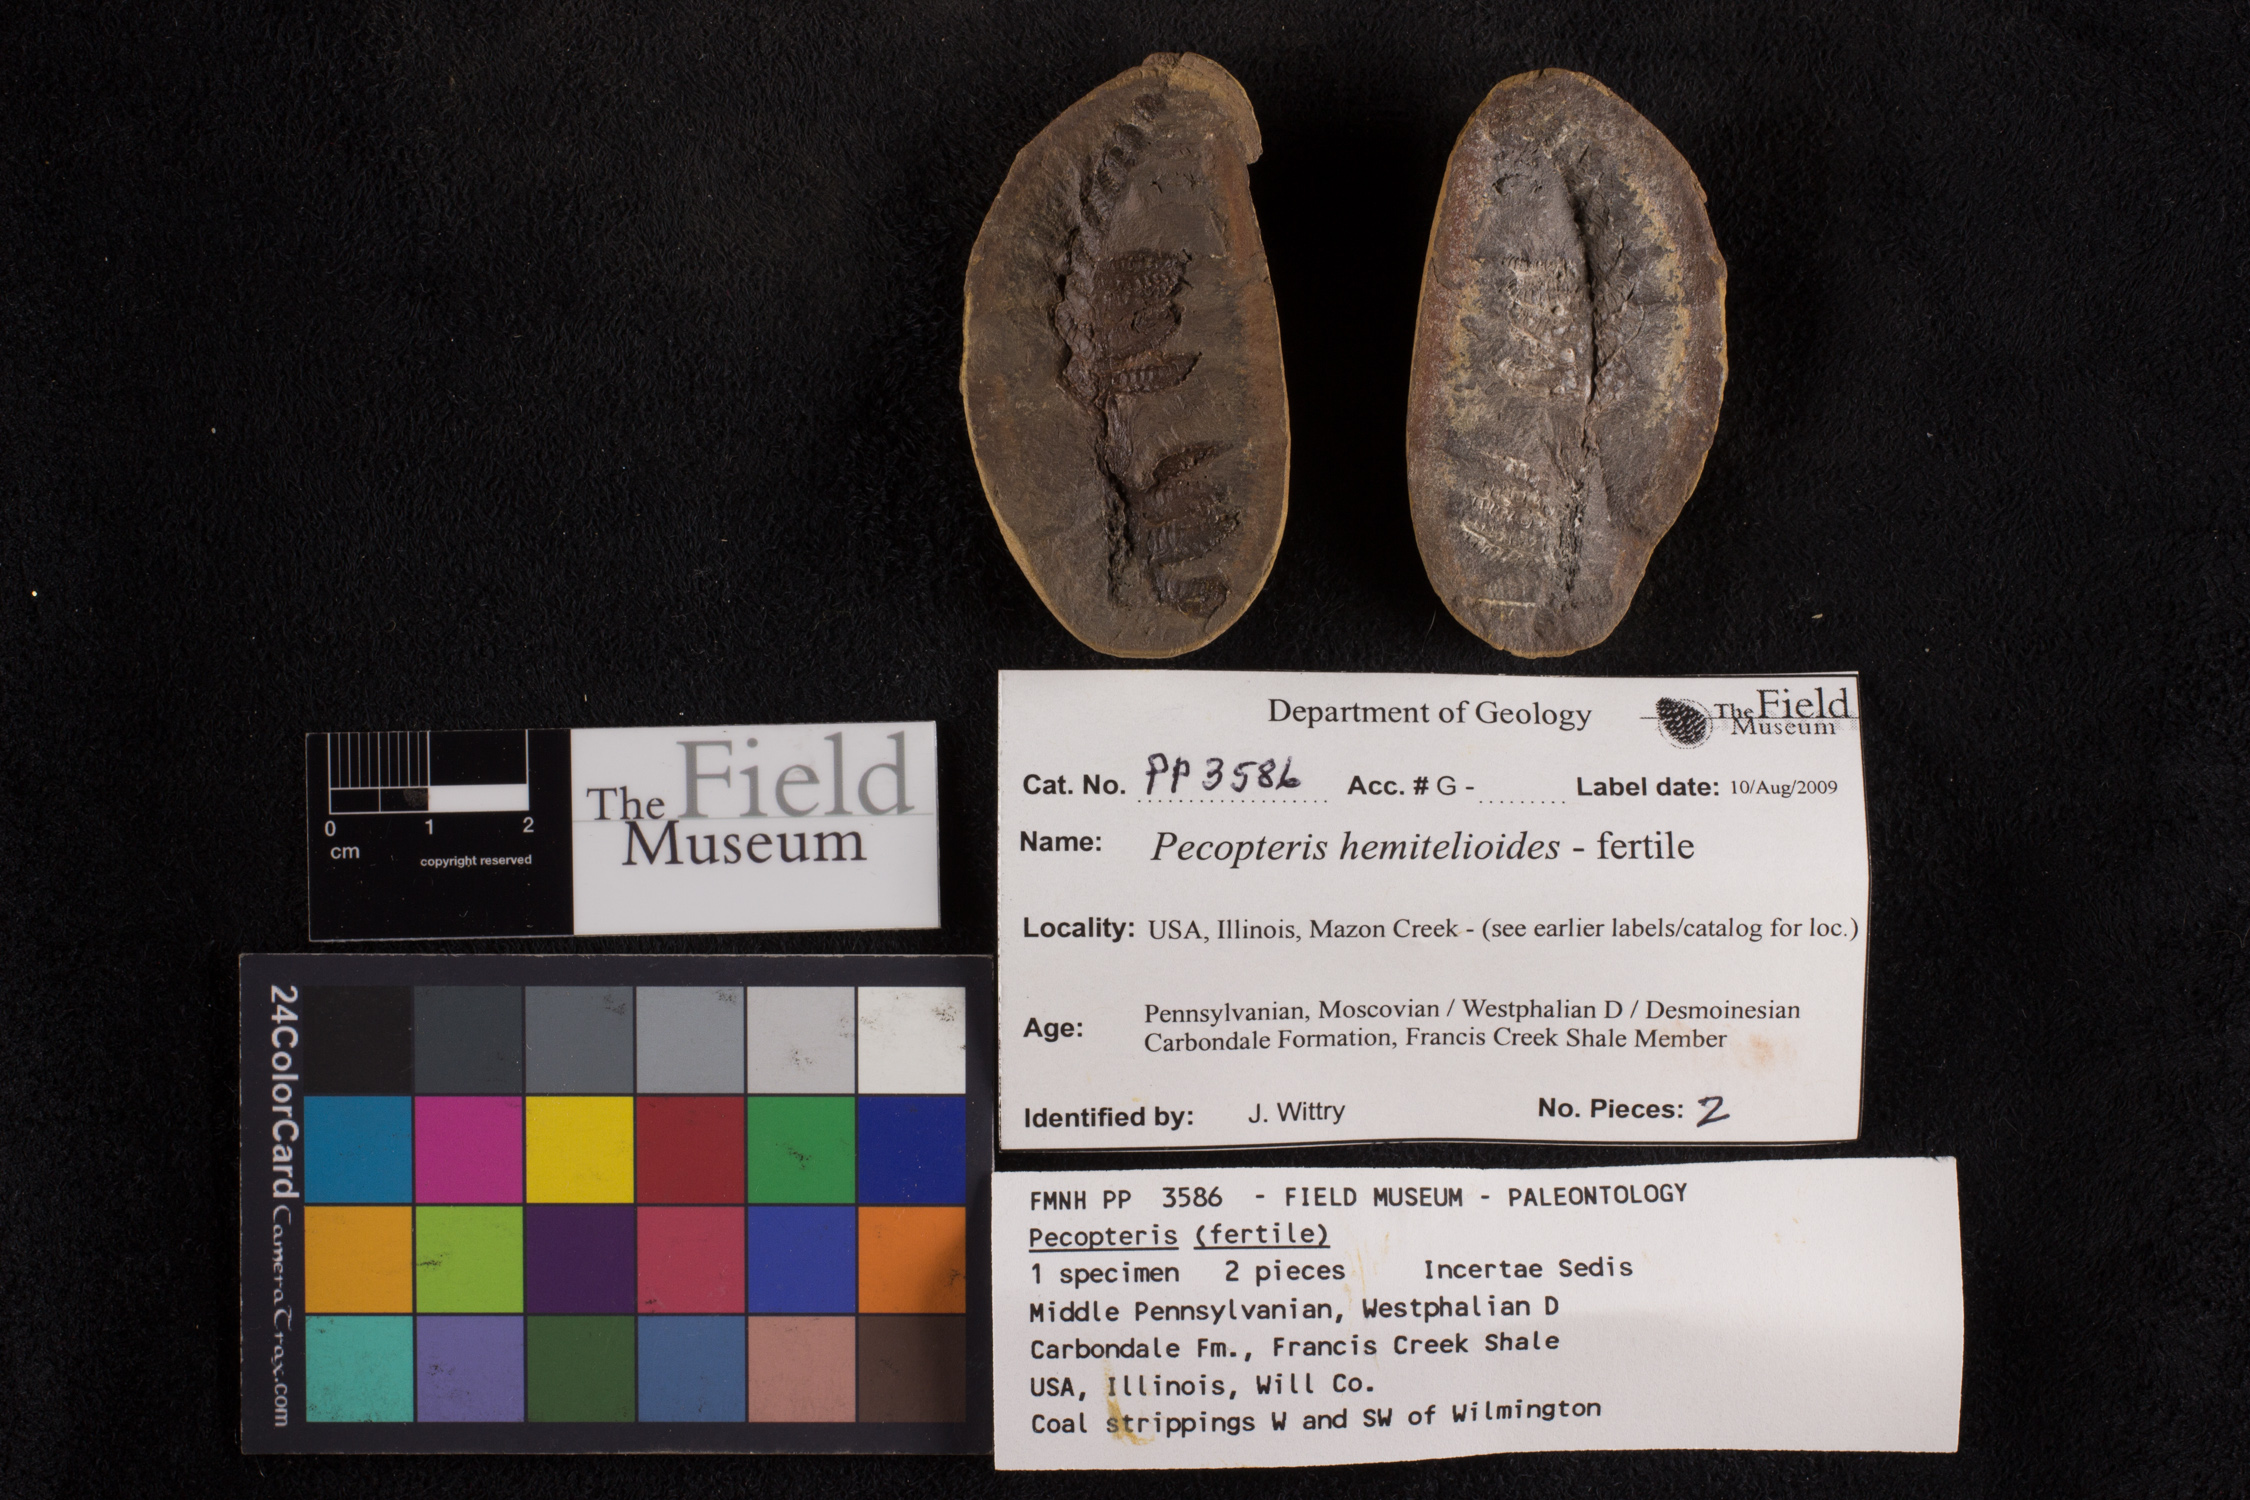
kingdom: Plantae
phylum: Tracheophyta
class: Polypodiopsida
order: Marattiales
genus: Cyathocarpus
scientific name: Cyathocarpus
